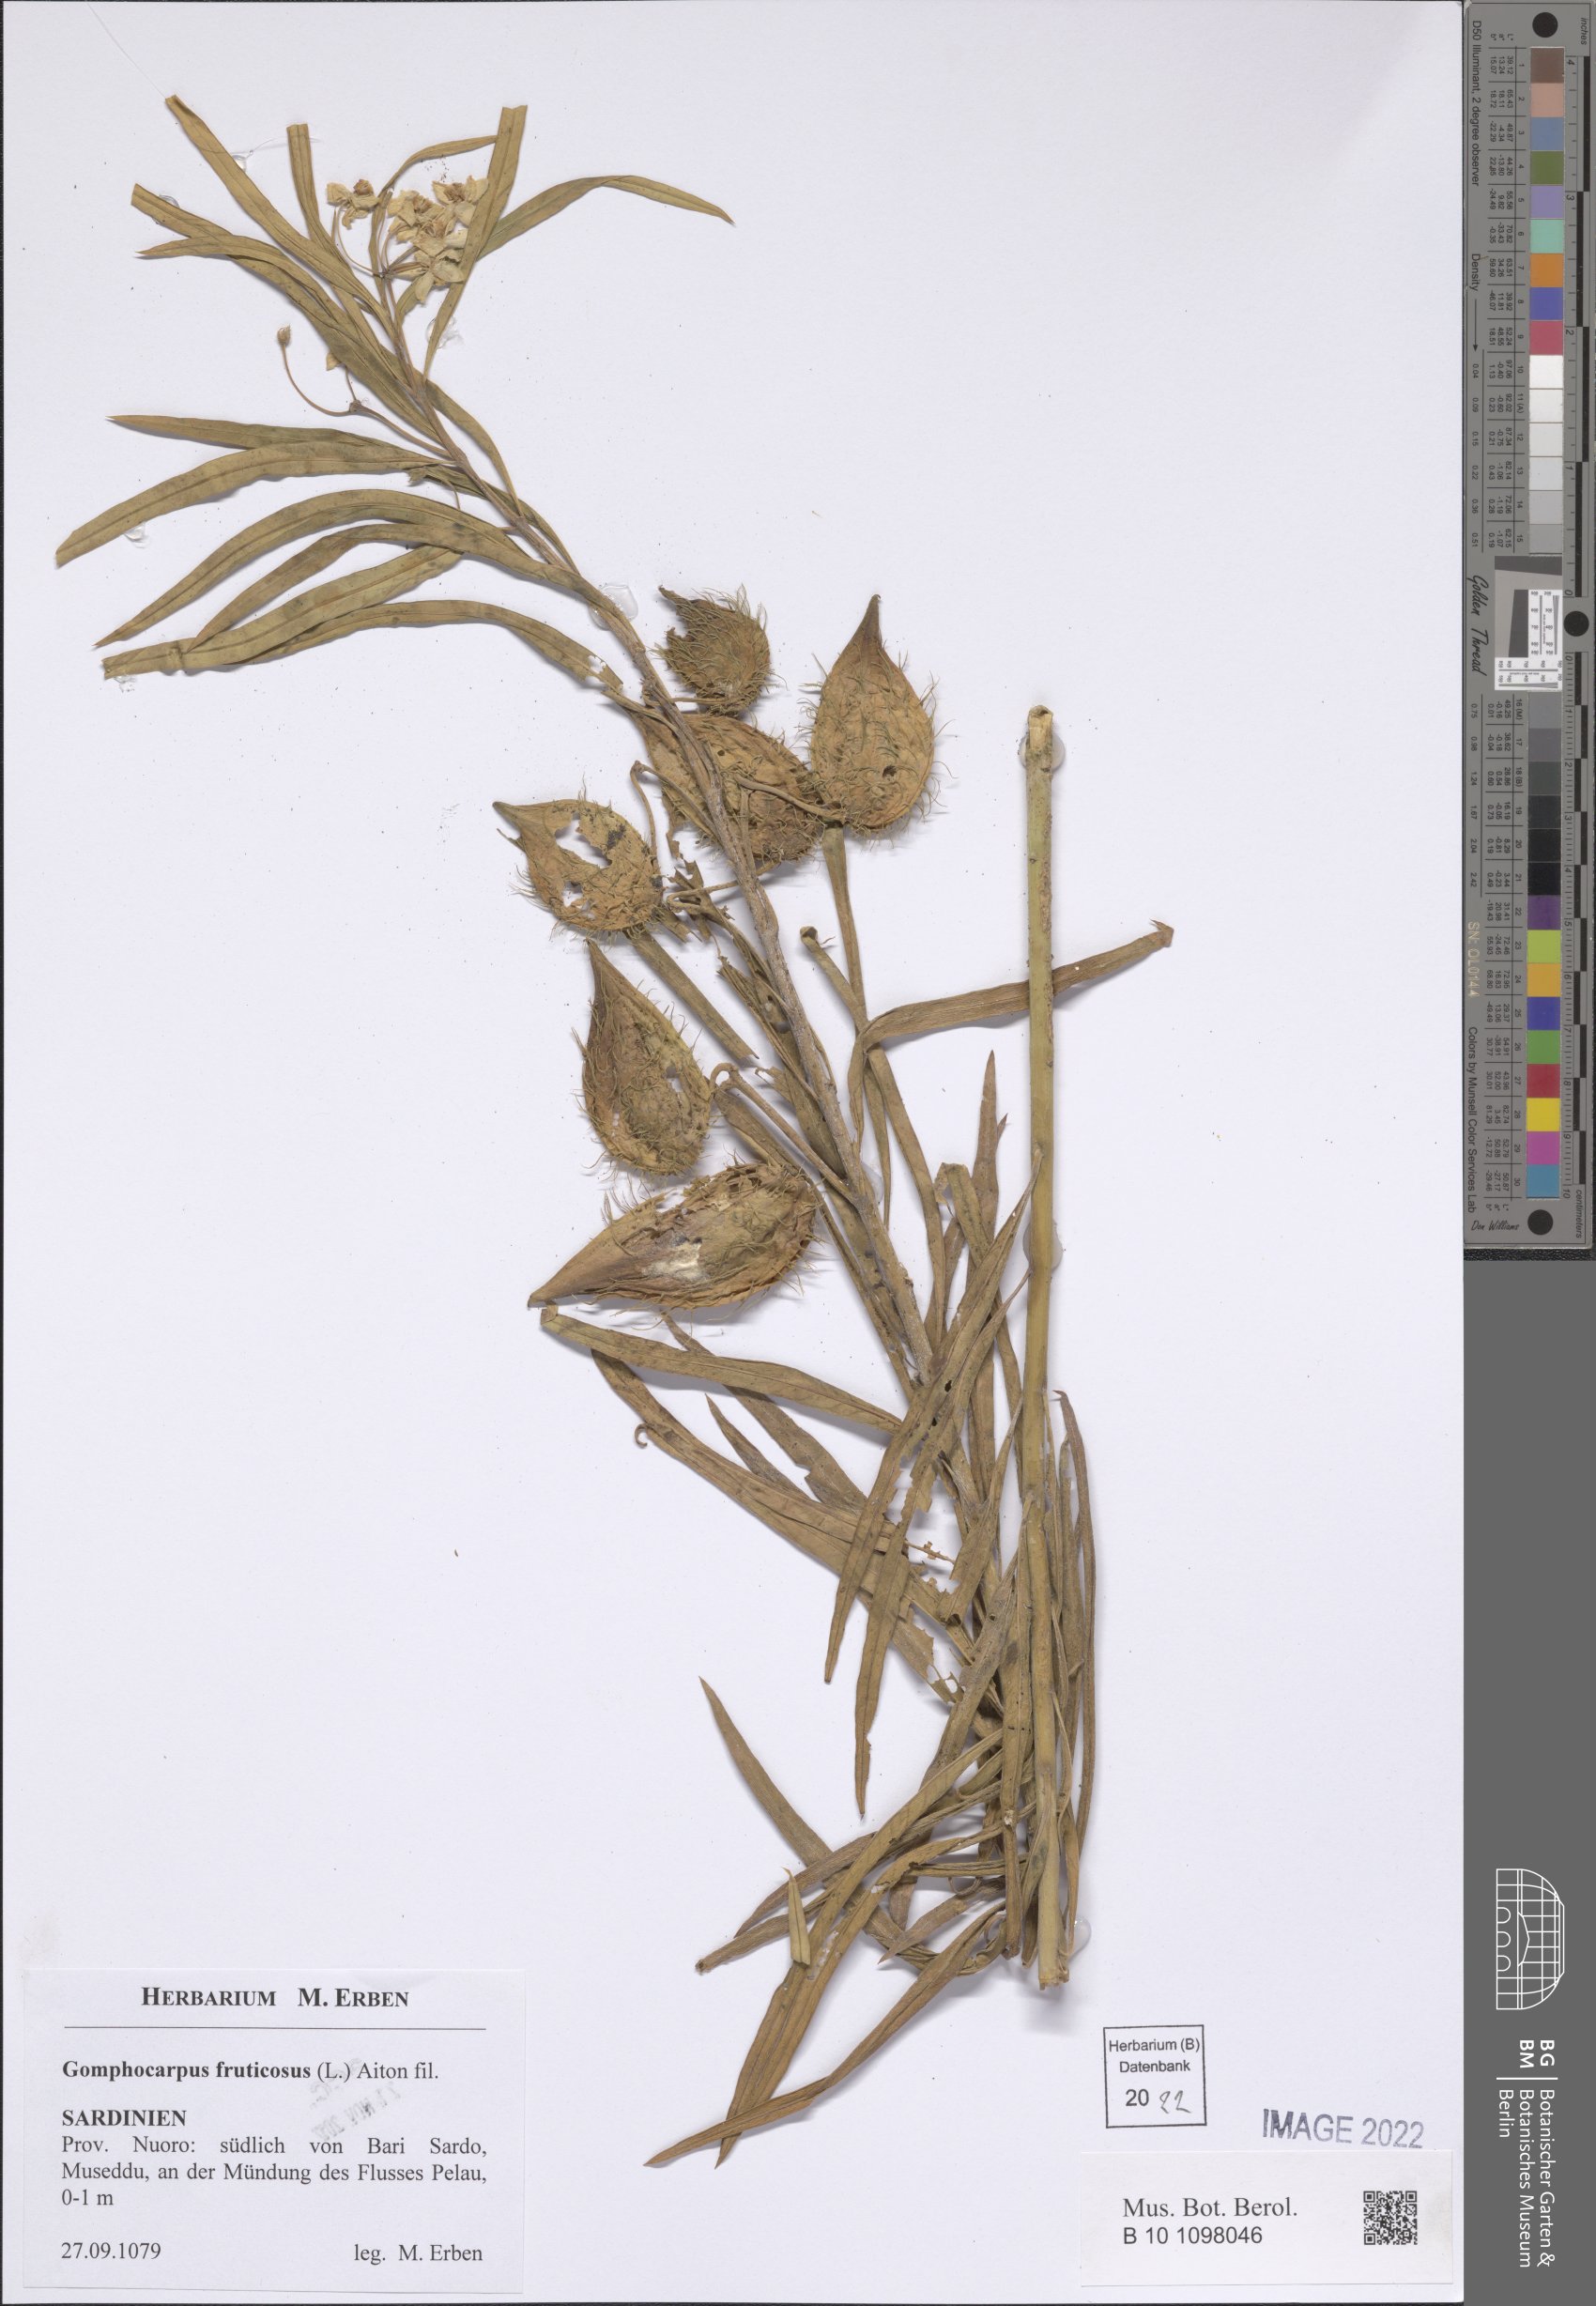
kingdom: Plantae
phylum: Tracheophyta
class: Magnoliopsida
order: Gentianales
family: Apocynaceae
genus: Gomphocarpus
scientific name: Gomphocarpus fruticosus
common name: Milkweed
